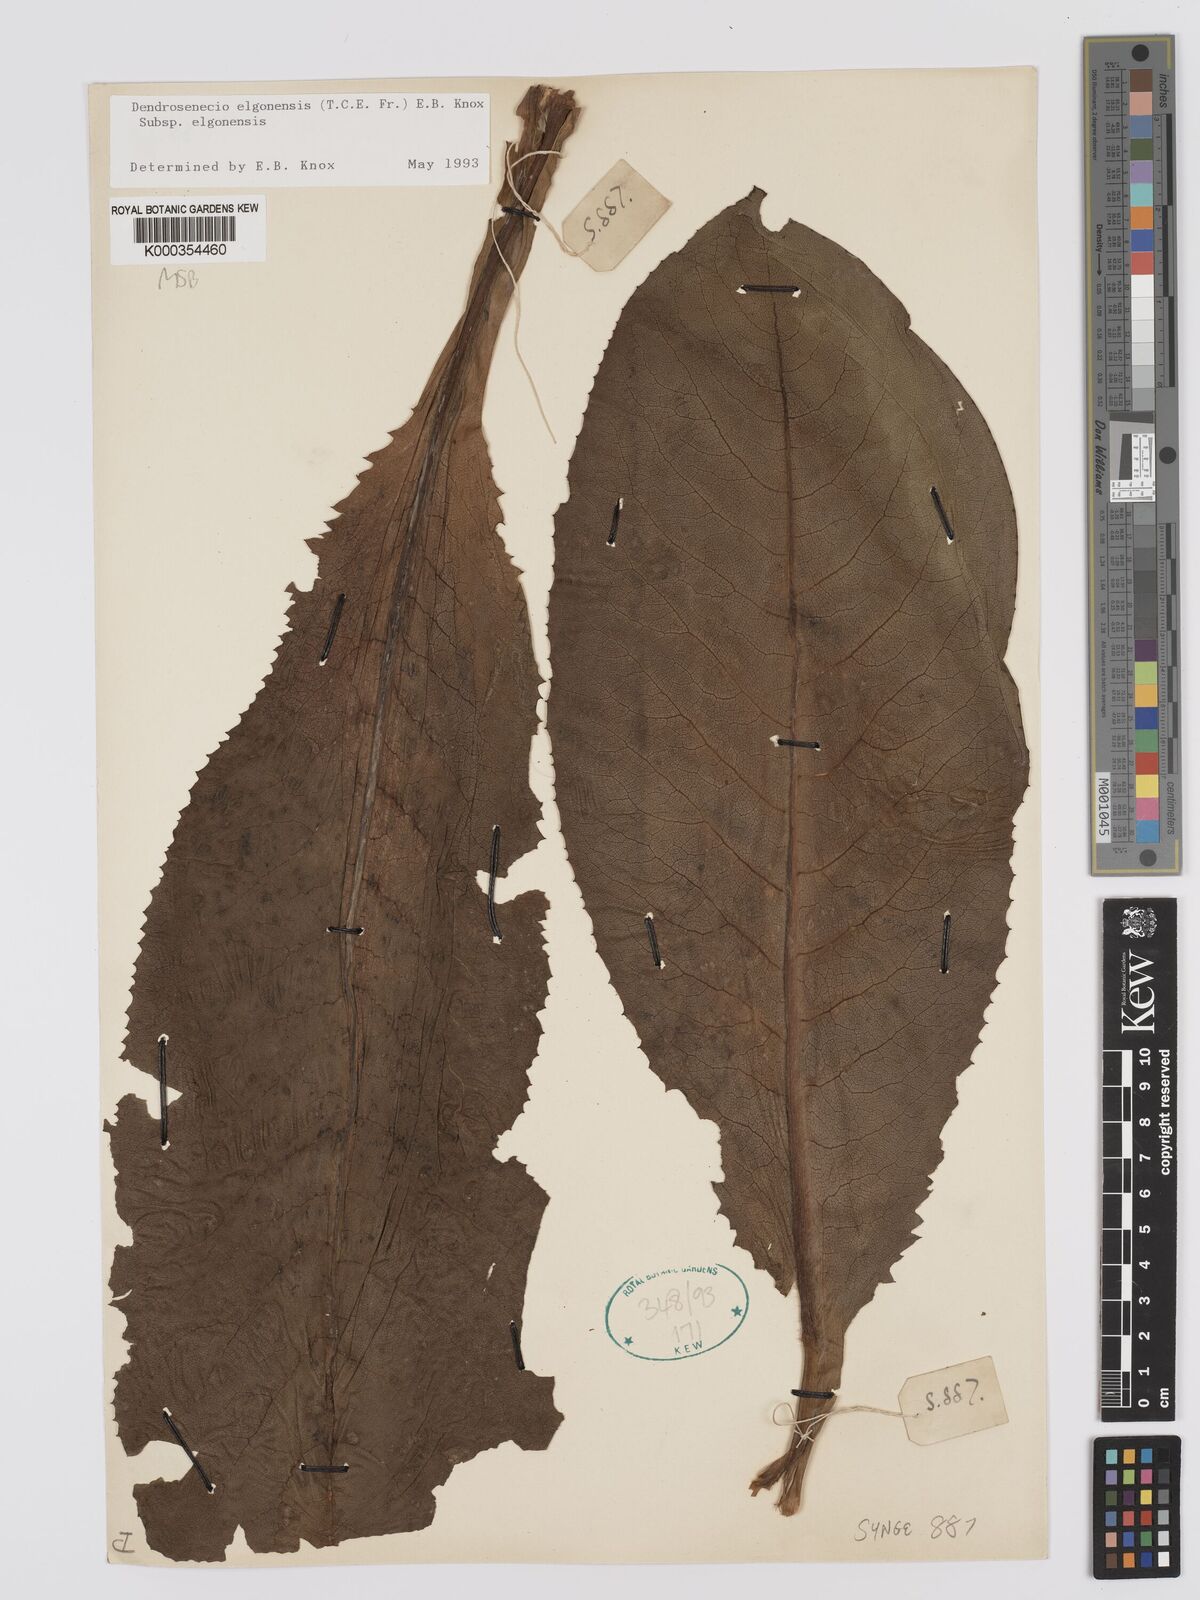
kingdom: Plantae
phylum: Tracheophyta
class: Magnoliopsida
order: Asterales
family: Asteraceae
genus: Dendrosenecio
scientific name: Dendrosenecio elgonensis
